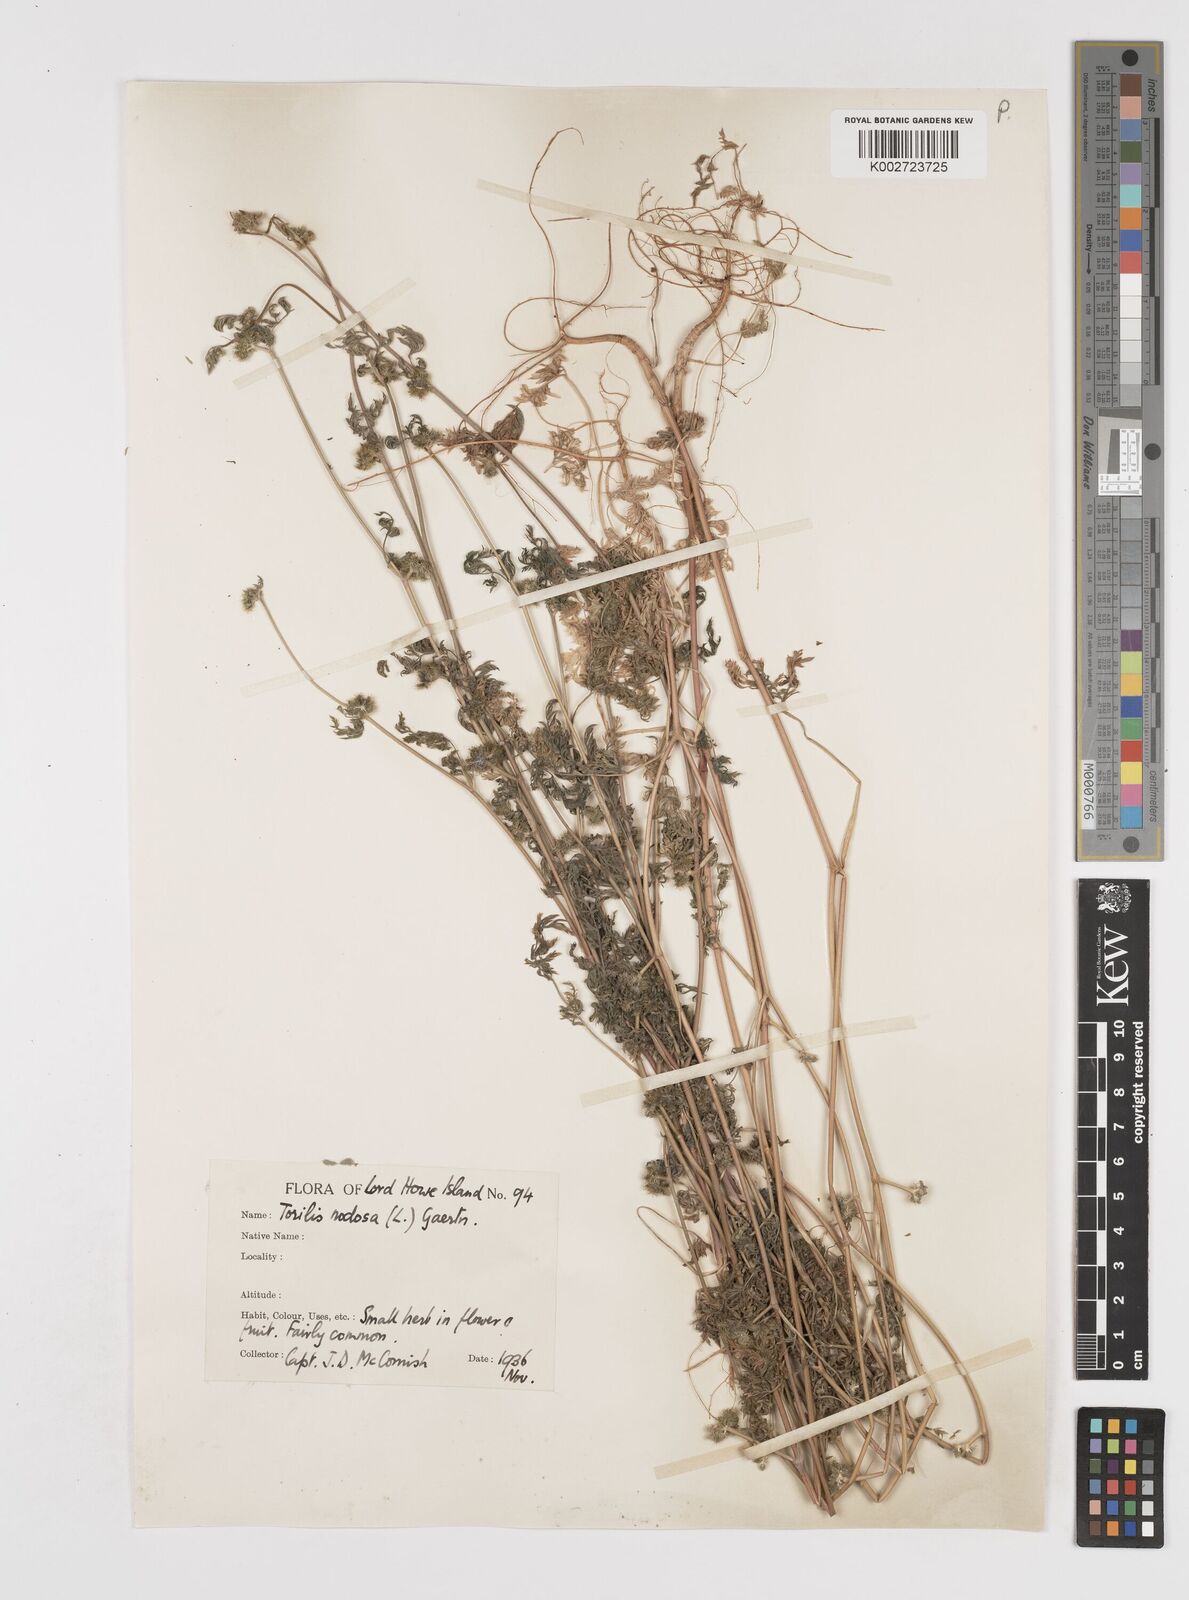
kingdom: Plantae
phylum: Tracheophyta
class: Magnoliopsida
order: Apiales
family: Apiaceae
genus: Torilis
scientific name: Torilis nodosa
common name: Knotted hedge-parsley
